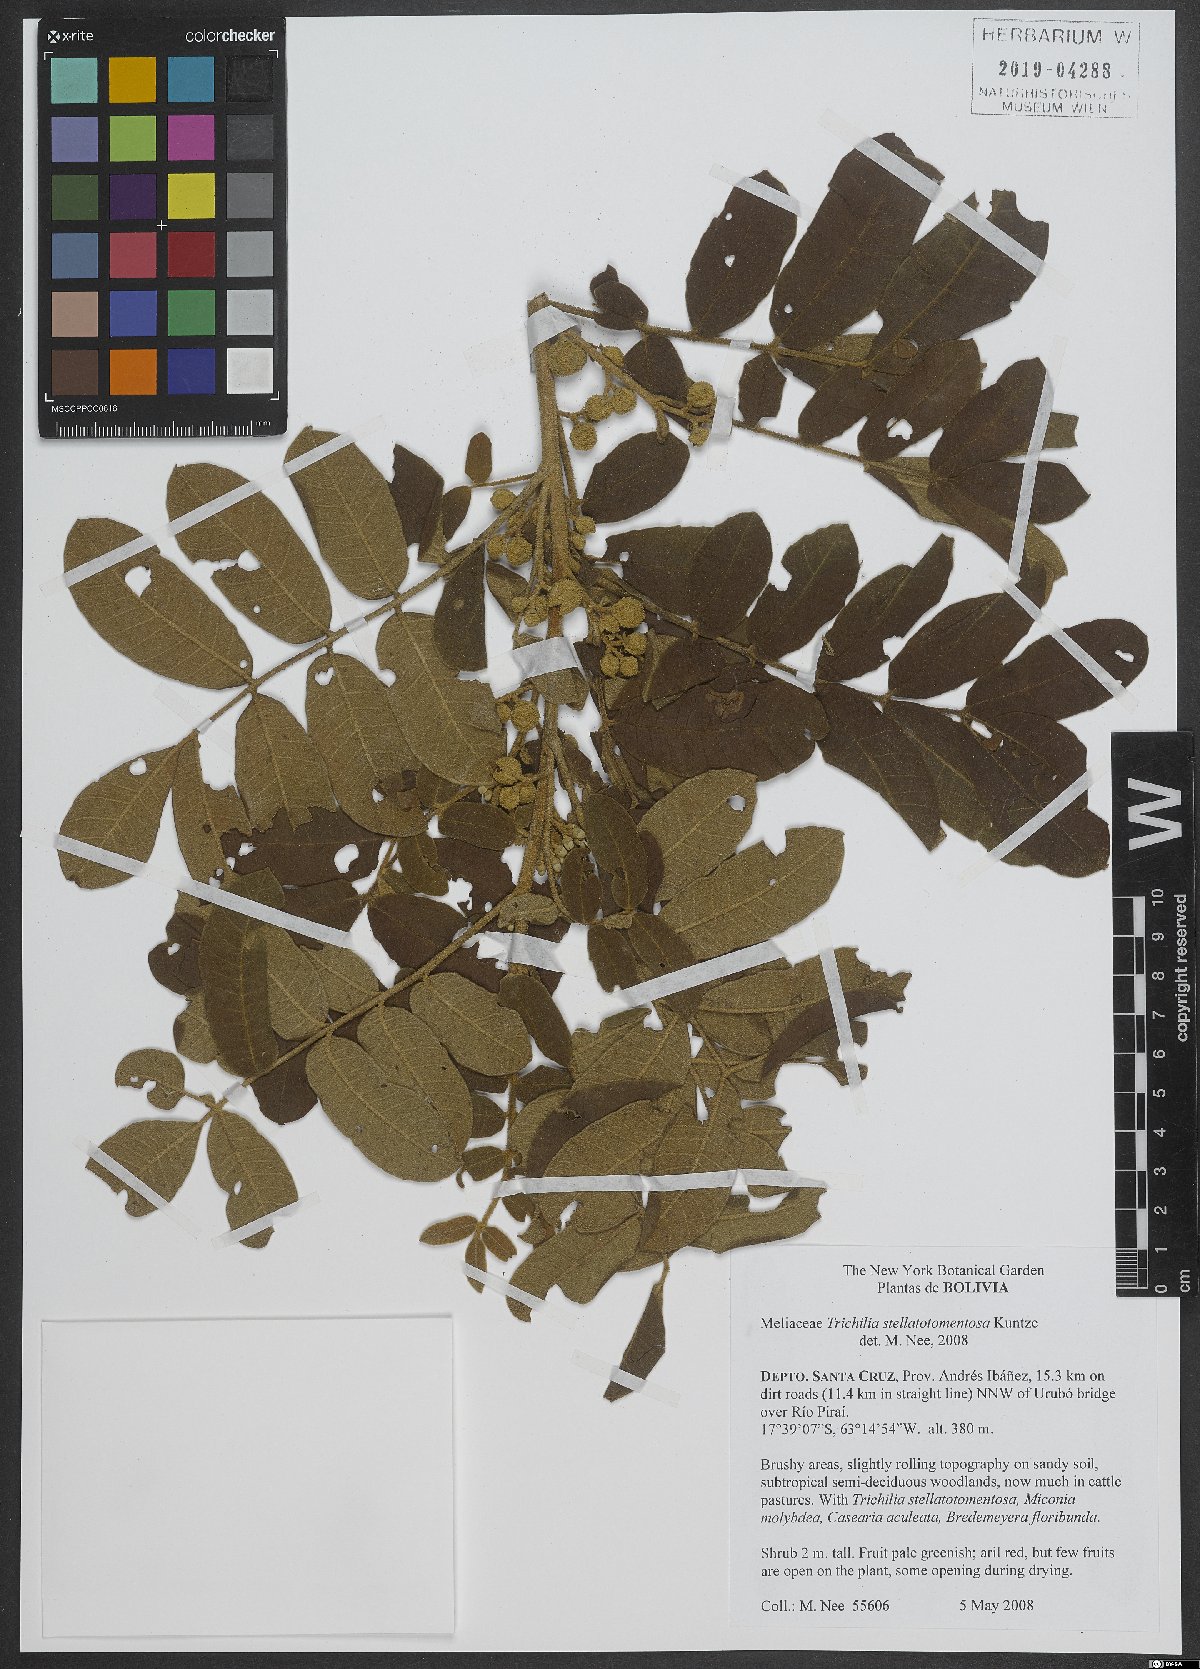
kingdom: Plantae
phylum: Tracheophyta
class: Magnoliopsida
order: Sapindales
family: Meliaceae
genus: Trichilia
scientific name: Trichilia stellatotomentosa
